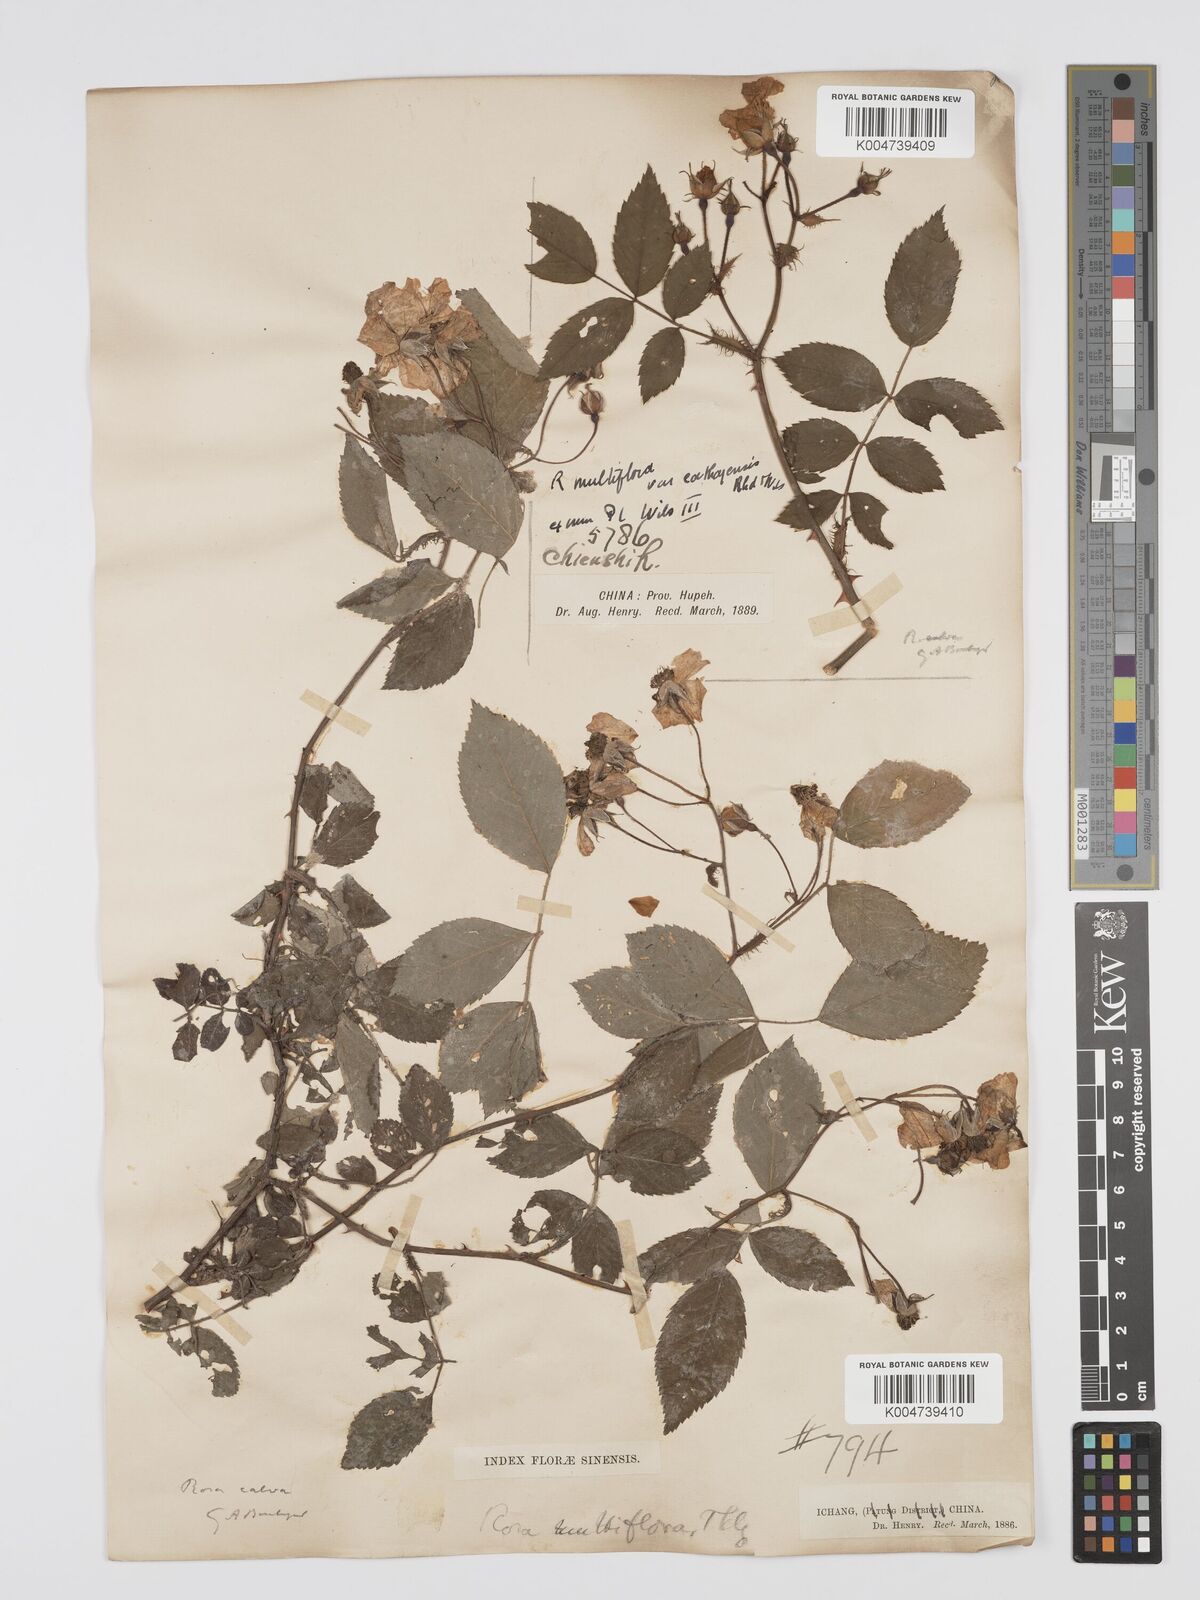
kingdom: Plantae
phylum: Tracheophyta
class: Magnoliopsida
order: Rosales
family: Rosaceae
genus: Rosa
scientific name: Rosa
